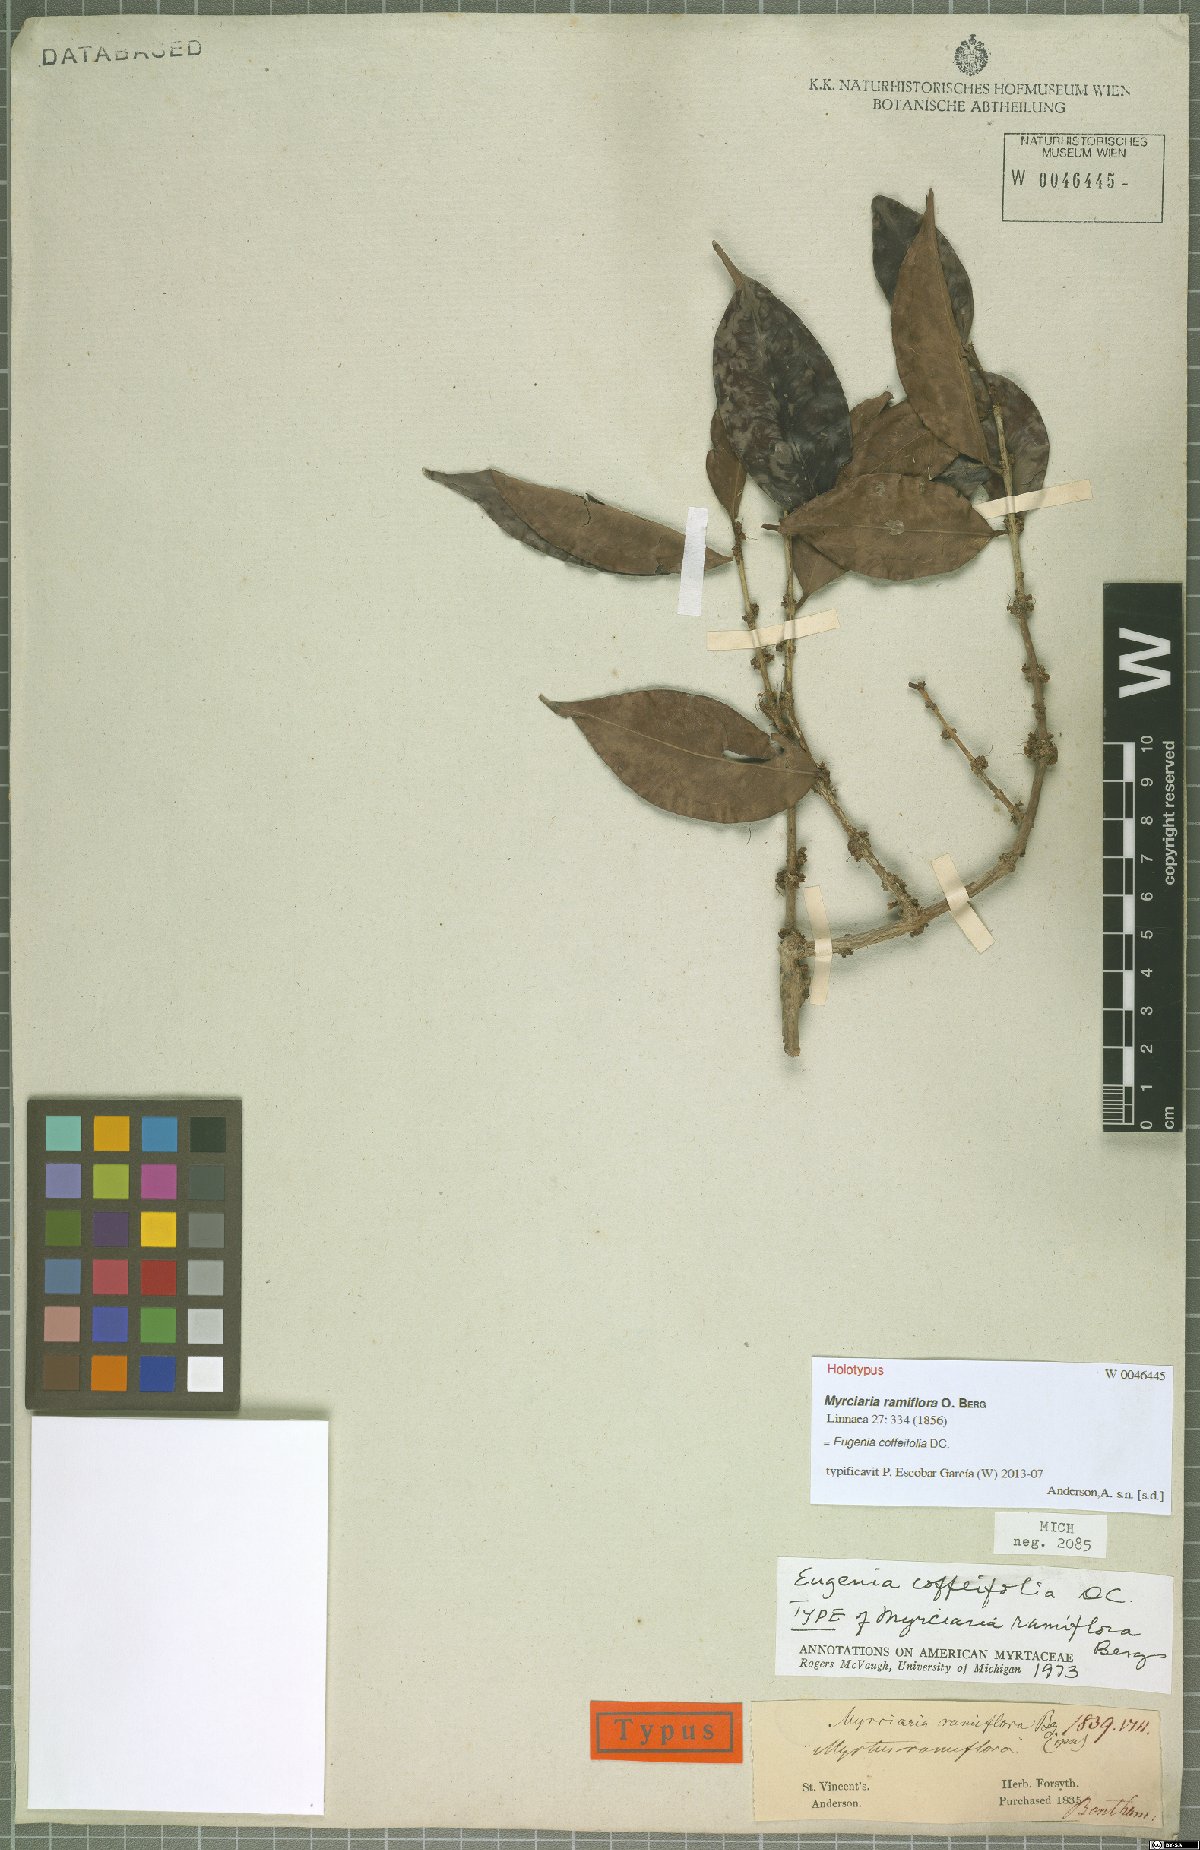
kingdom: Plantae
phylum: Tracheophyta
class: Magnoliopsida
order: Myrtales
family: Myrtaceae
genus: Eugenia
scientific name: Eugenia coffeifolia
